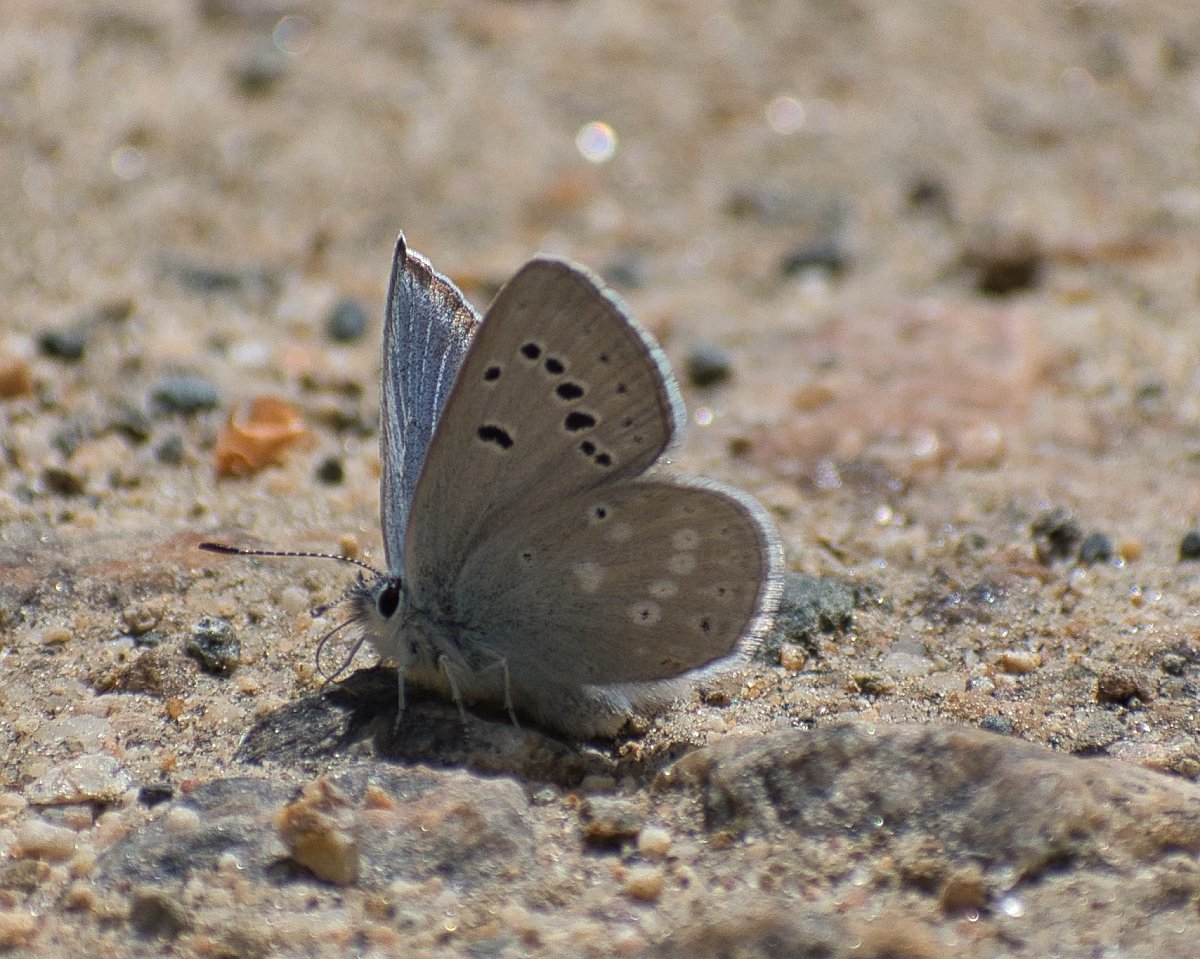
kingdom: Animalia
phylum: Arthropoda
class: Insecta
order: Lepidoptera
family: Lycaenidae
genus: Icaricia
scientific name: Icaricia icarioides
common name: Boisduval's Blue
